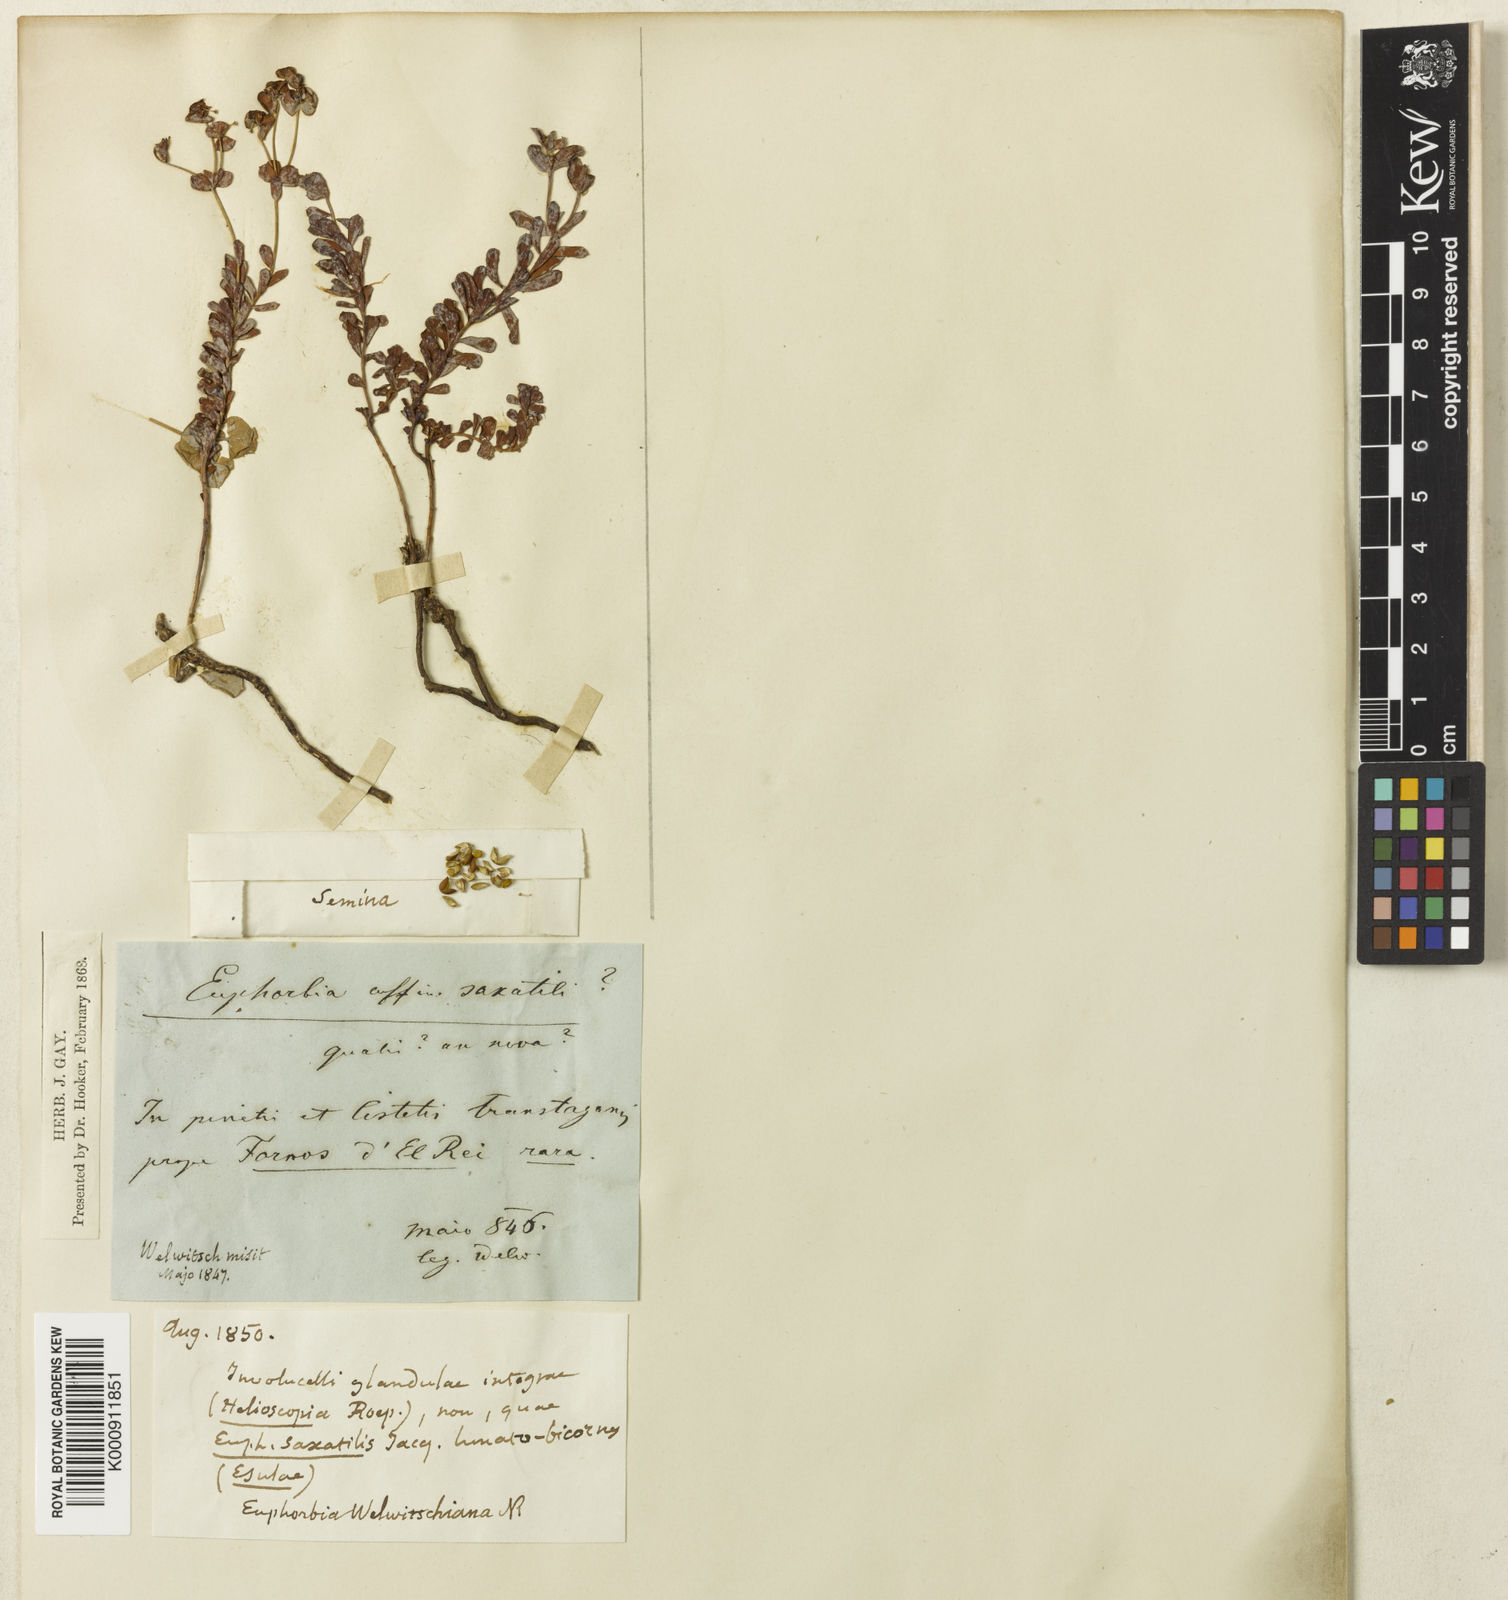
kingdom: Plantae
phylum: Tracheophyta
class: Magnoliopsida
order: Malpighiales
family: Euphorbiaceae
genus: Euphorbia
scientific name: Euphorbia transtagana
